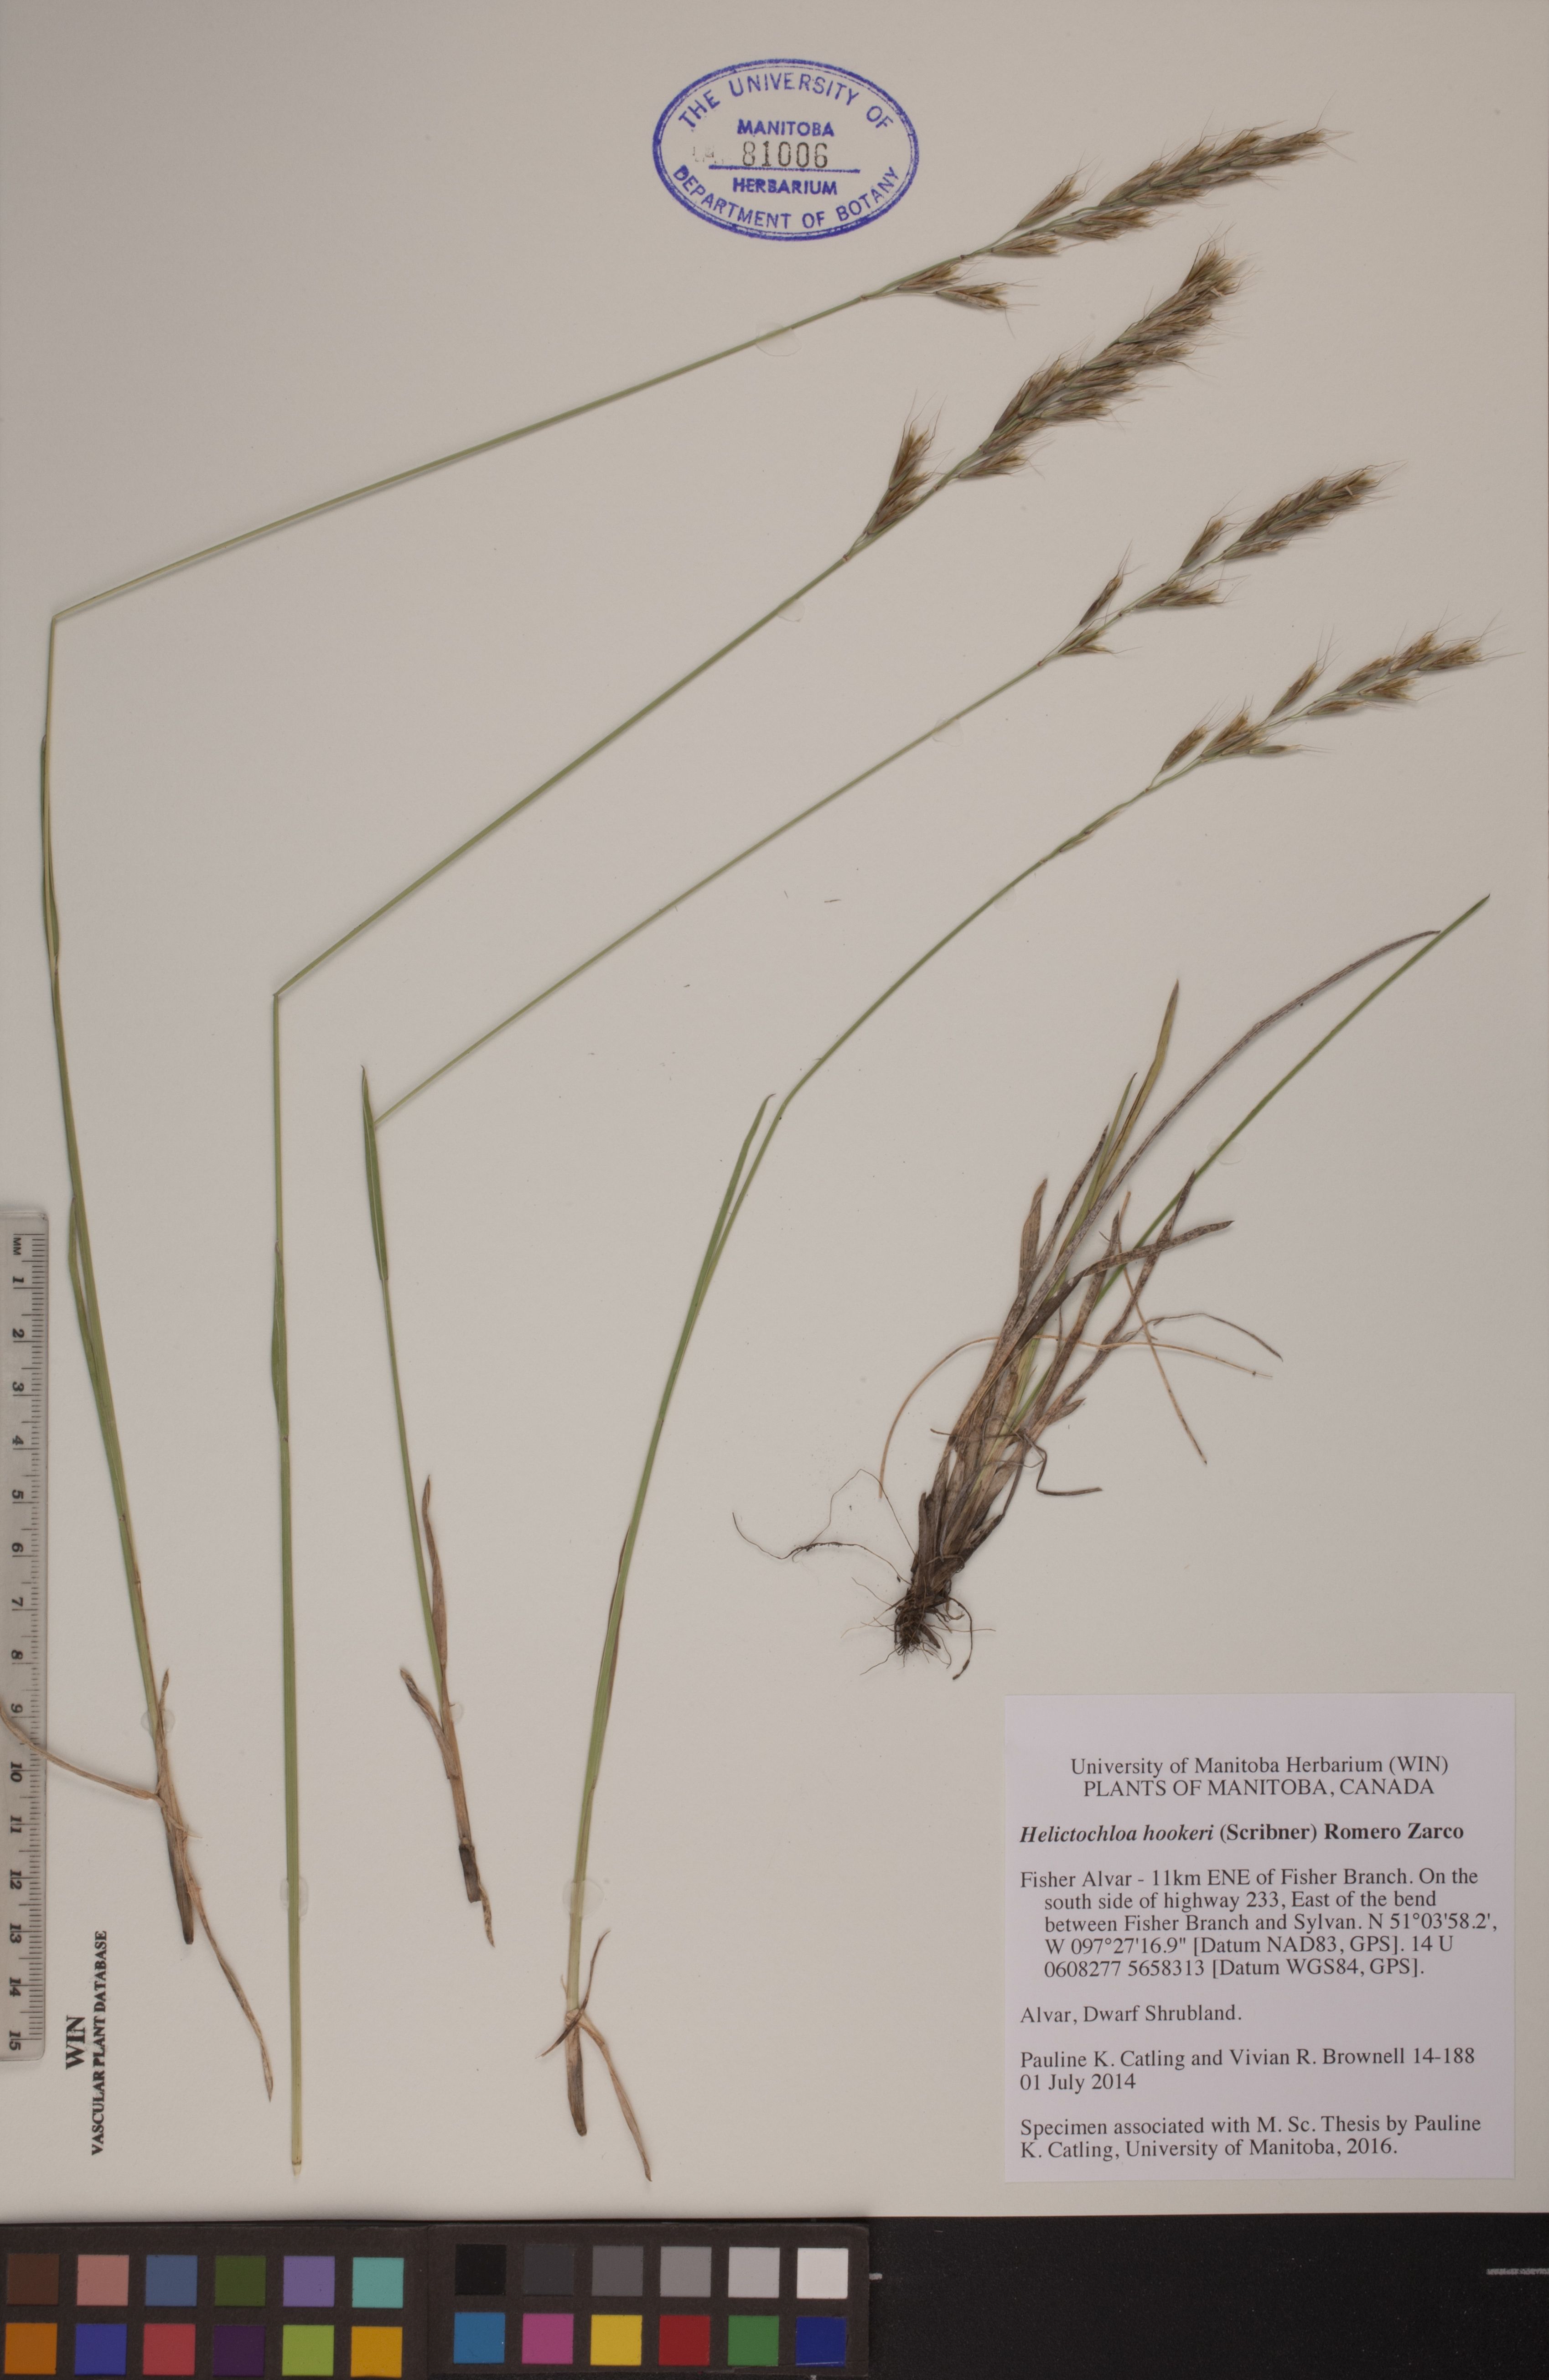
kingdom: Plantae
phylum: Tracheophyta
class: Liliopsida
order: Poales
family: Poaceae
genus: Helictochloa
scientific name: Helictochloa hookeri
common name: Hooker's alpine oatgrass
